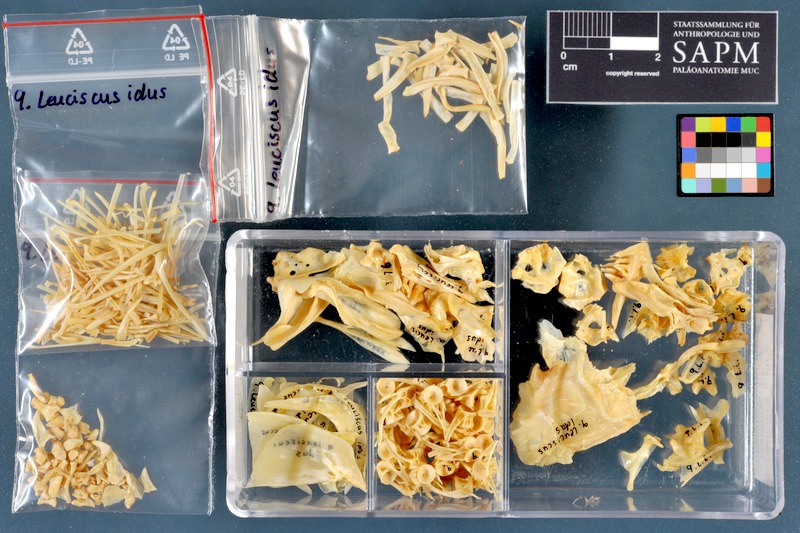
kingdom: Animalia
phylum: Chordata
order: Cypriniformes
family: Cyprinidae
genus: Leuciscus
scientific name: Leuciscus idus
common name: Ide
